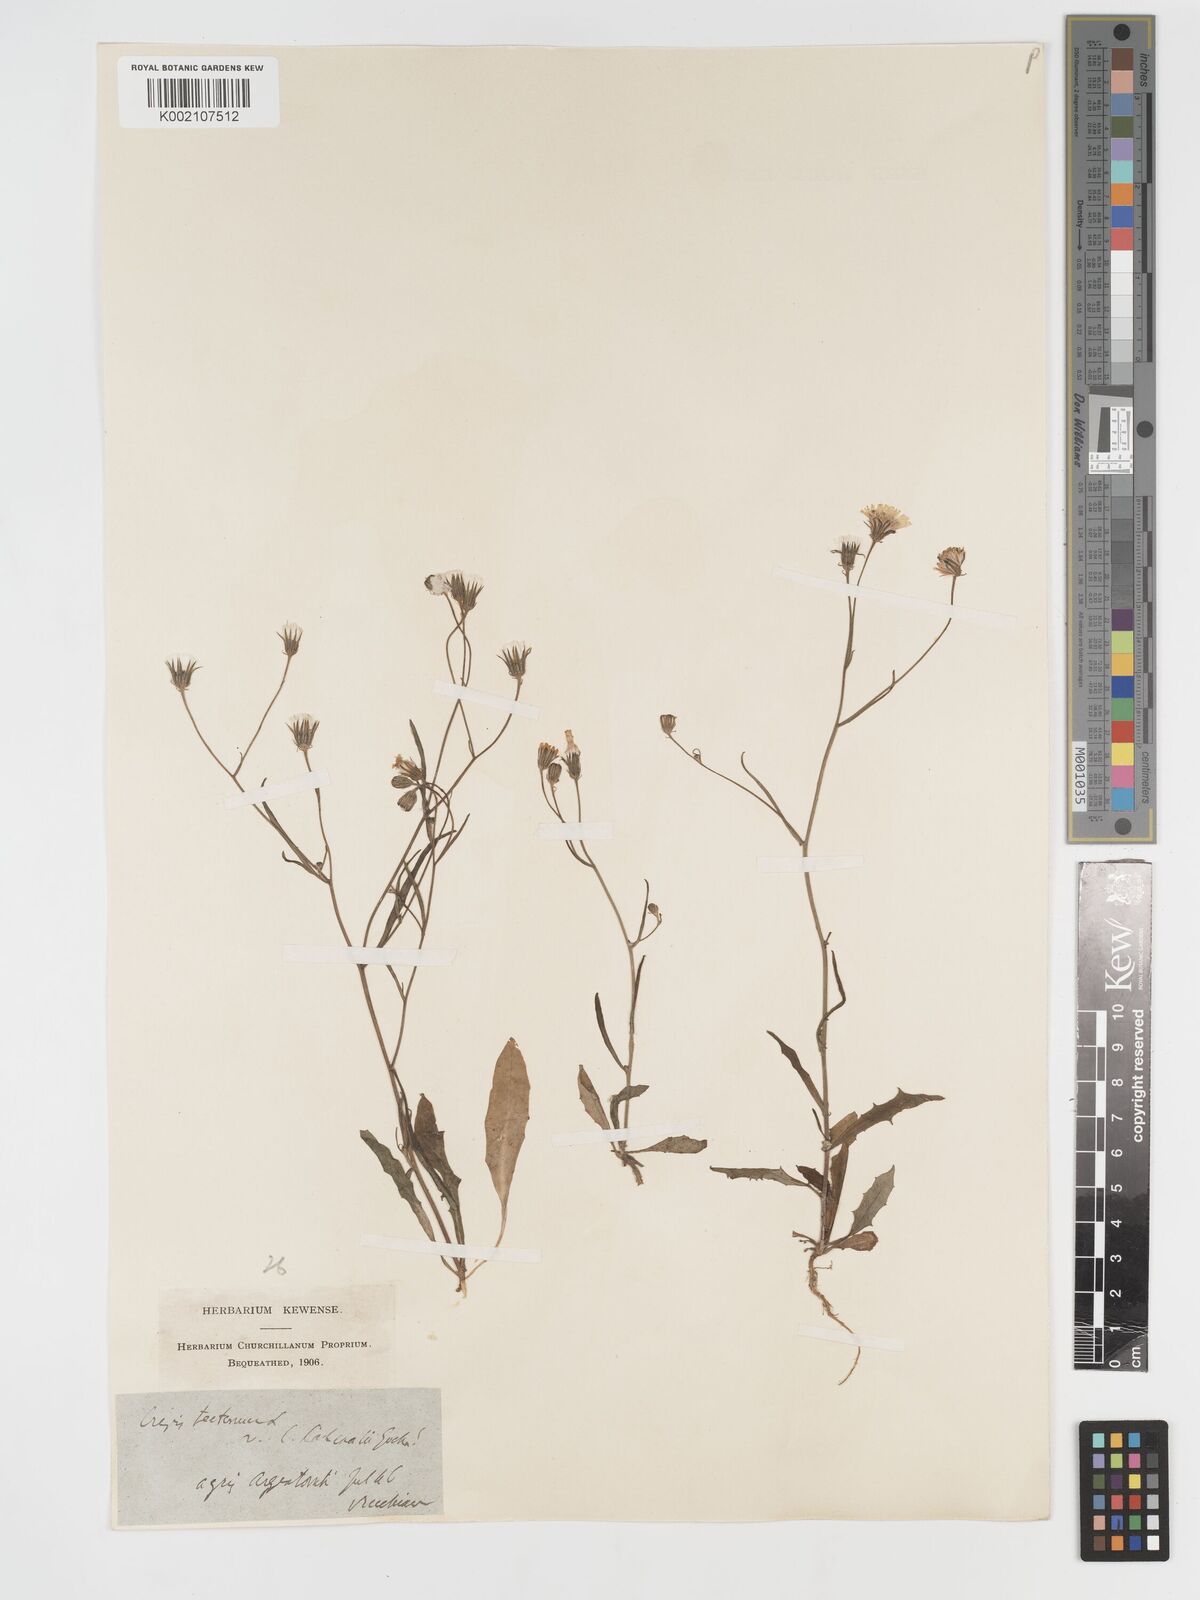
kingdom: Plantae
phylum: Tracheophyta
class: Magnoliopsida
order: Asterales
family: Asteraceae
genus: Crepis
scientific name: Crepis tectorum
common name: Narrow-leaved hawk's-beard
